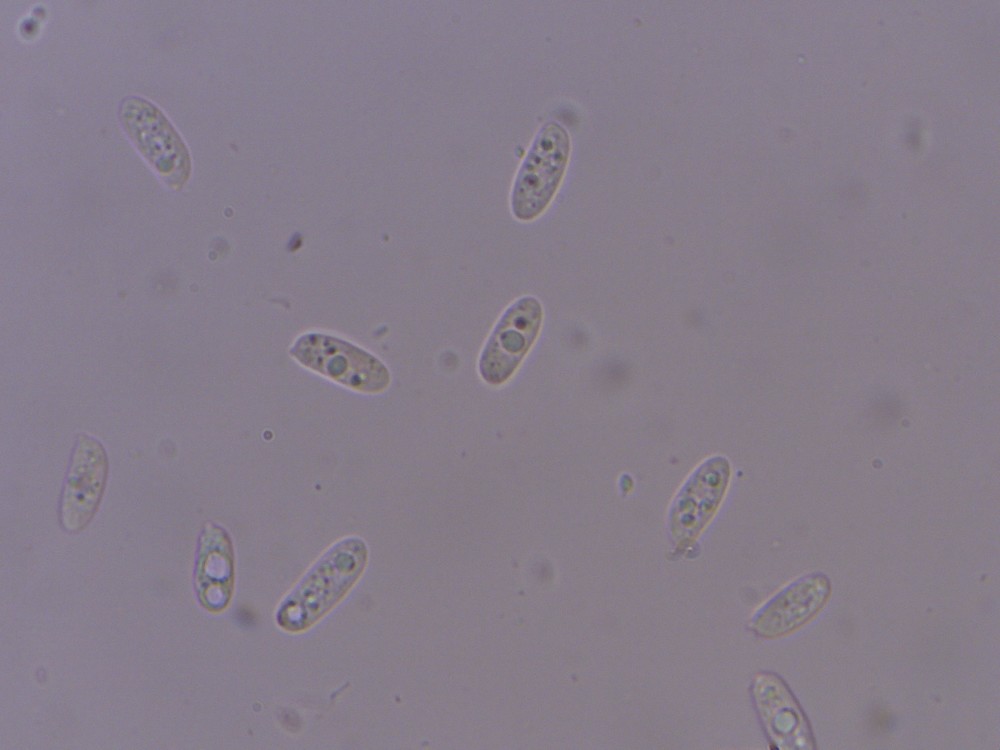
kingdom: Fungi
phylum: Basidiomycota
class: Agaricomycetes
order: Polyporales
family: Polyporaceae
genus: Polyporus
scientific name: Polyporus tuberaster
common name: knoldet stilkporesvamp
